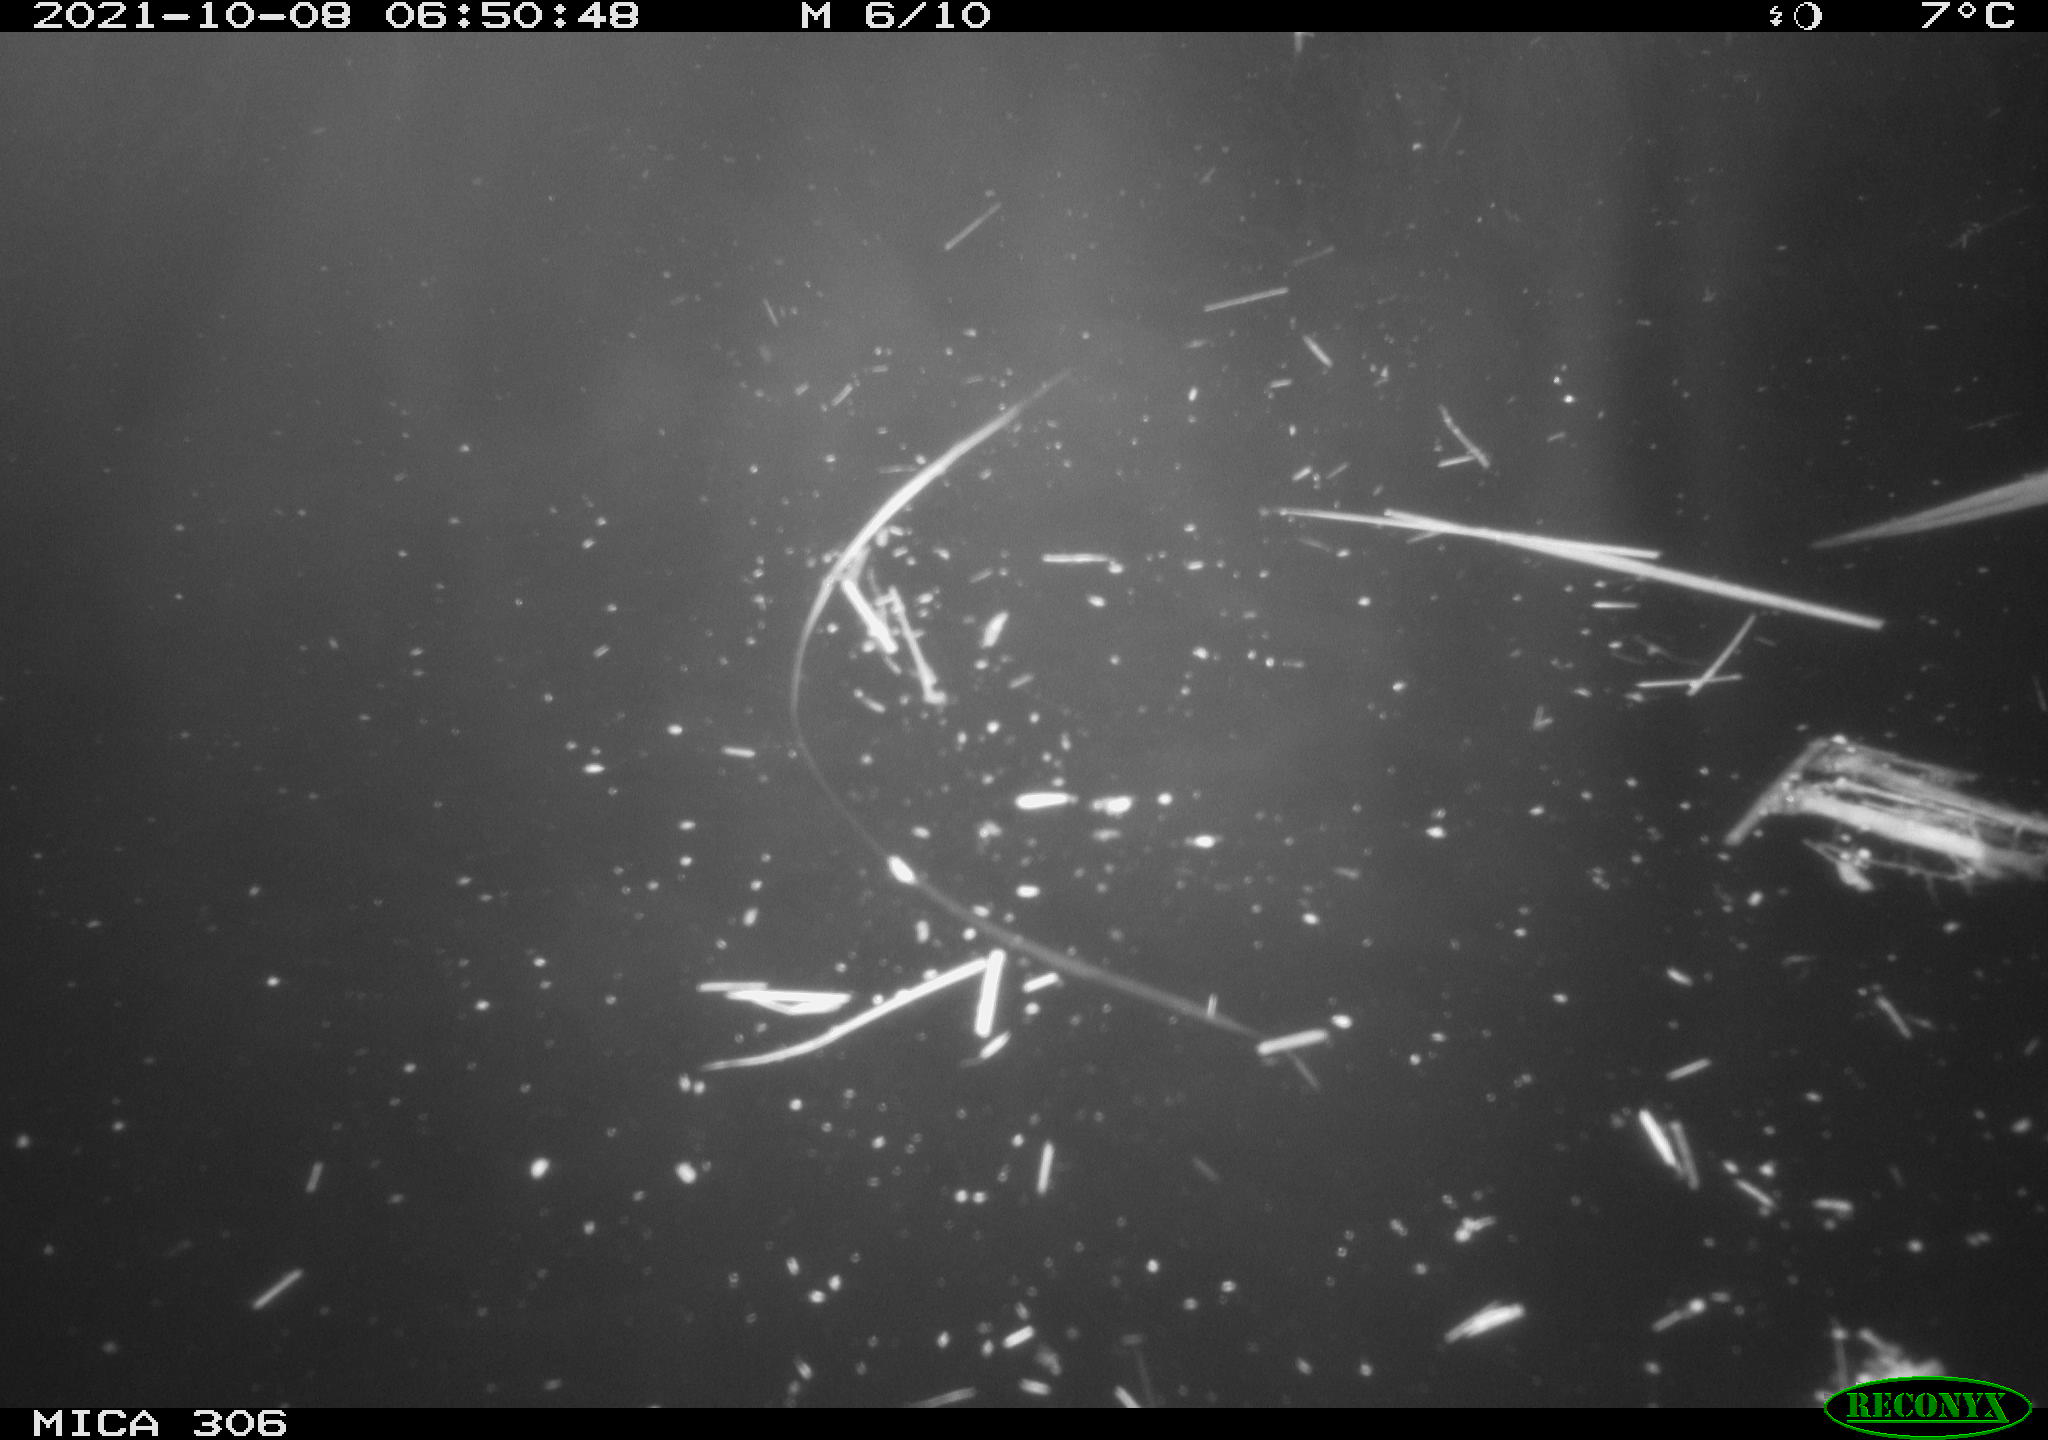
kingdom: Animalia
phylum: Chordata
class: Mammalia
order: Rodentia
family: Cricetidae
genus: Ondatra
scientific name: Ondatra zibethicus
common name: Muskrat
